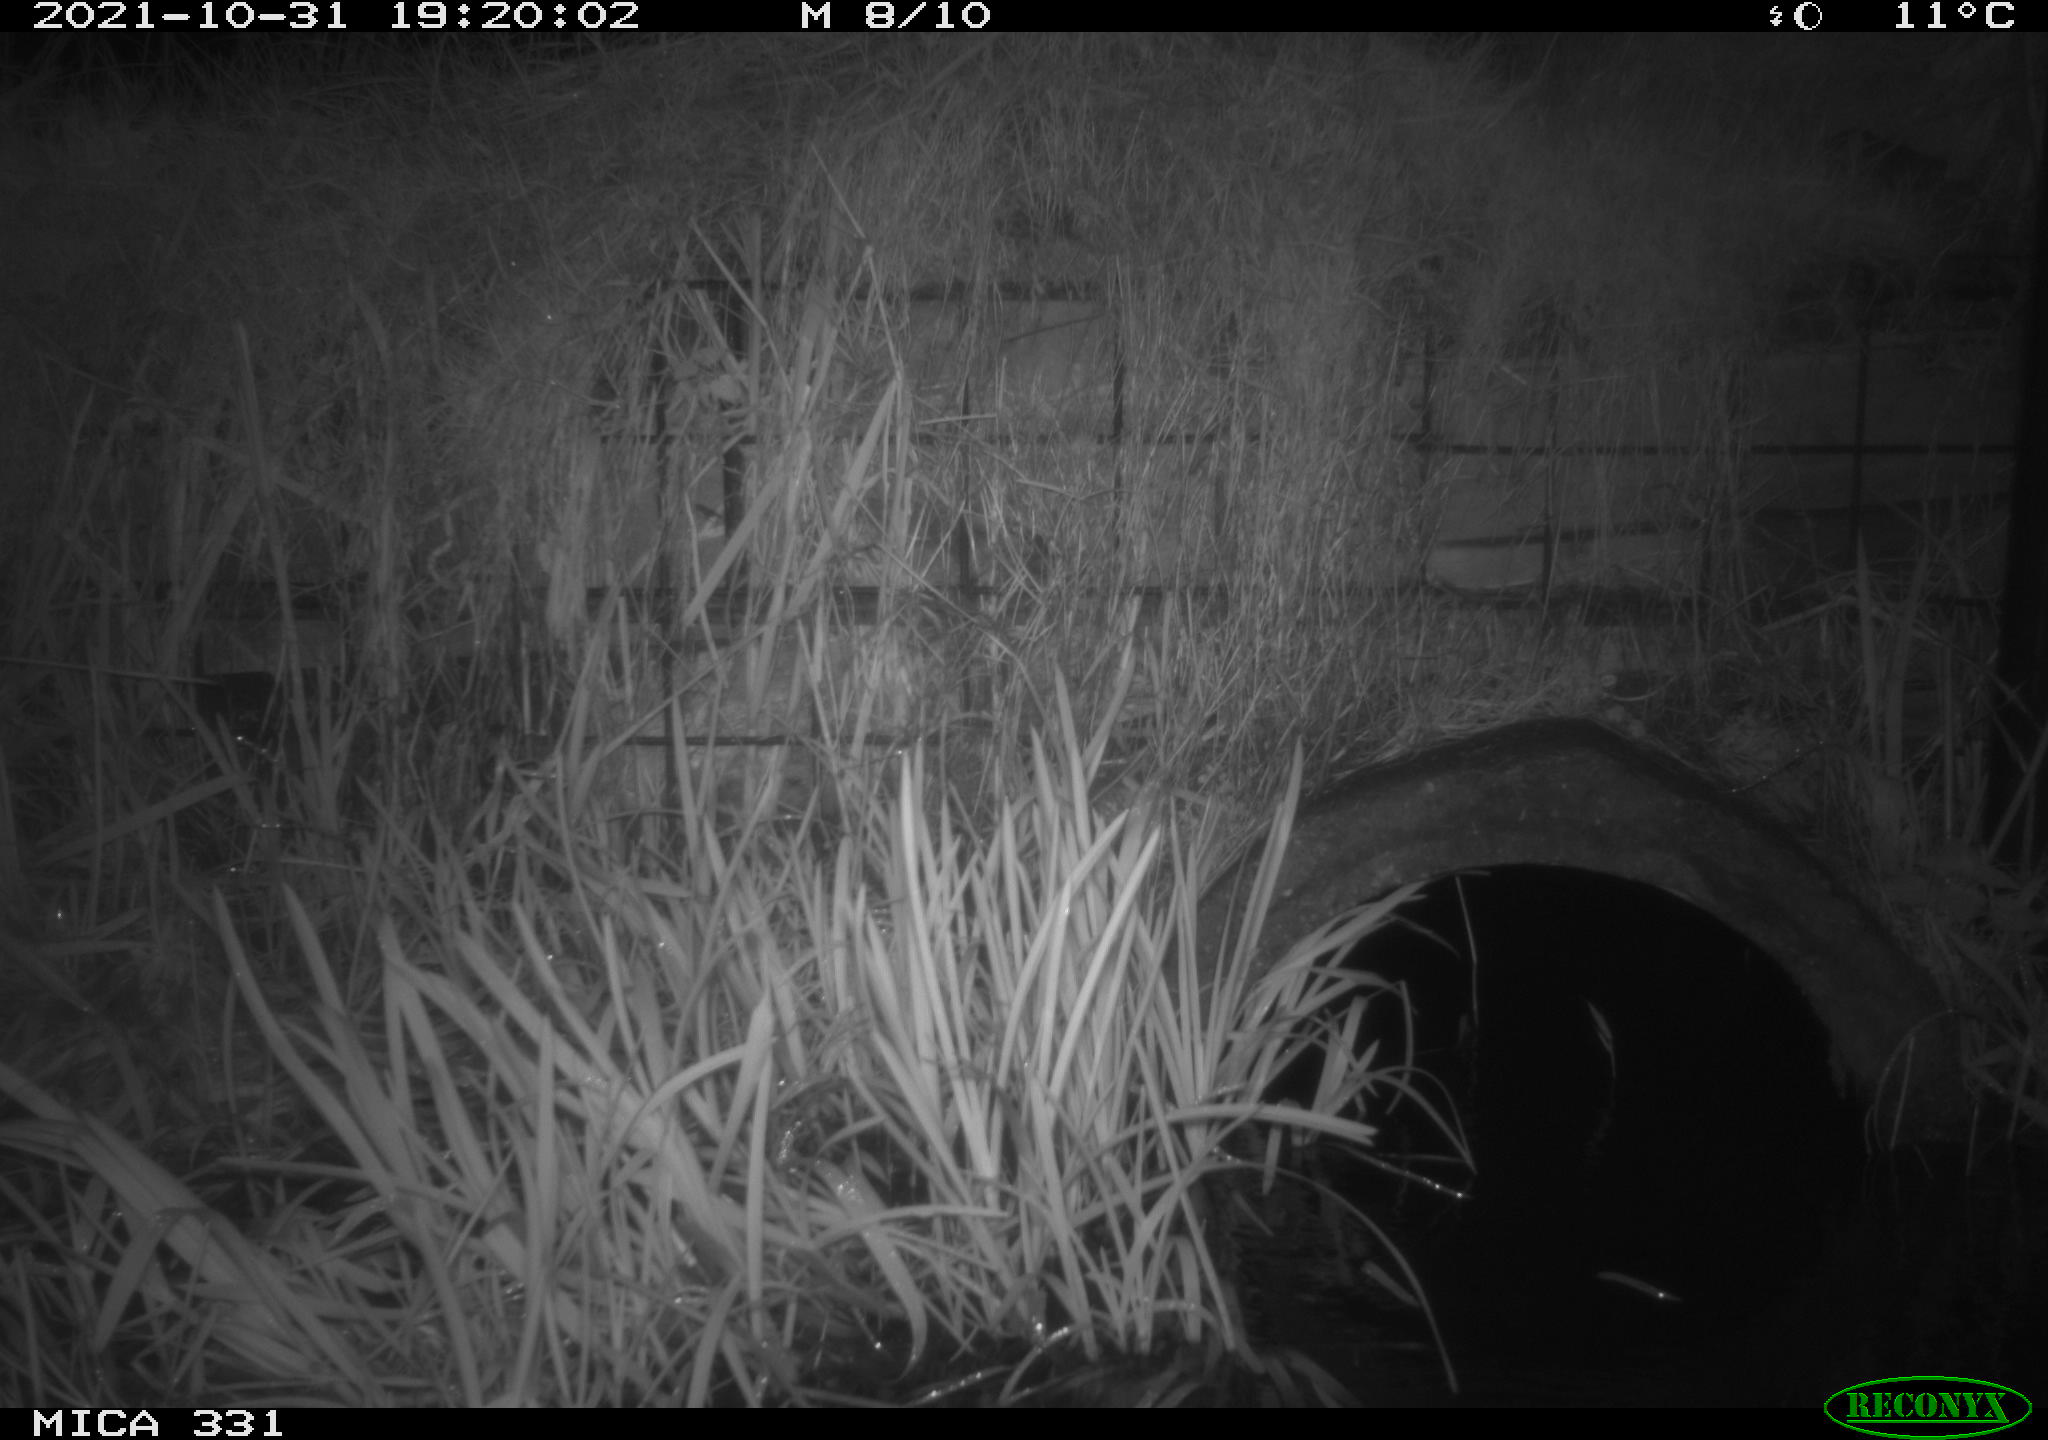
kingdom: Animalia
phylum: Chordata
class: Mammalia
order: Rodentia
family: Muridae
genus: Rattus
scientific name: Rattus norvegicus
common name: Brown rat
